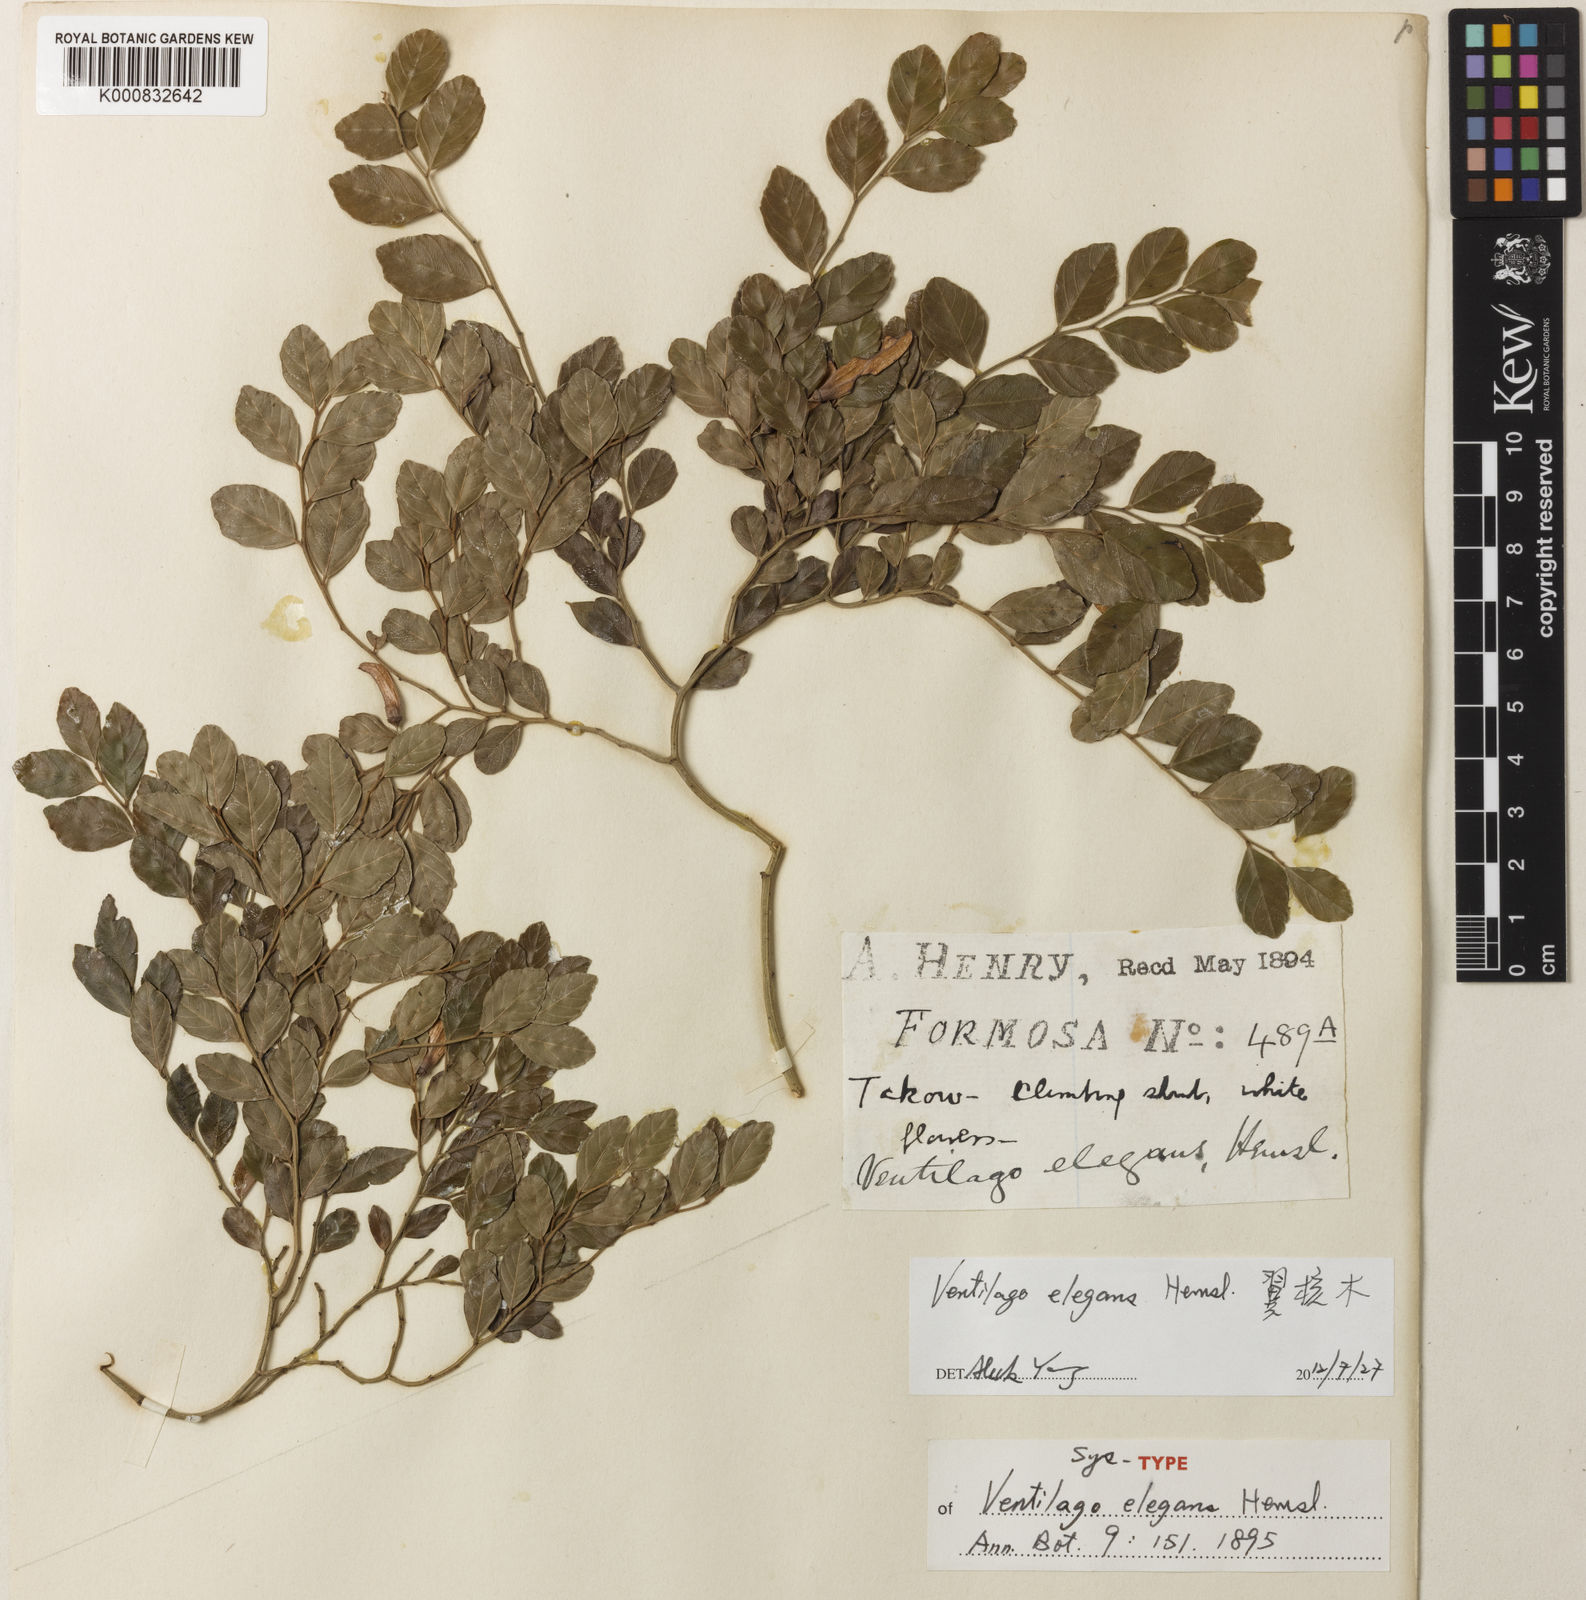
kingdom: Plantae
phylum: Tracheophyta
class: Magnoliopsida
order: Rosales
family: Rhamnaceae
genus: Ventilago
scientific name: Ventilago elegans
